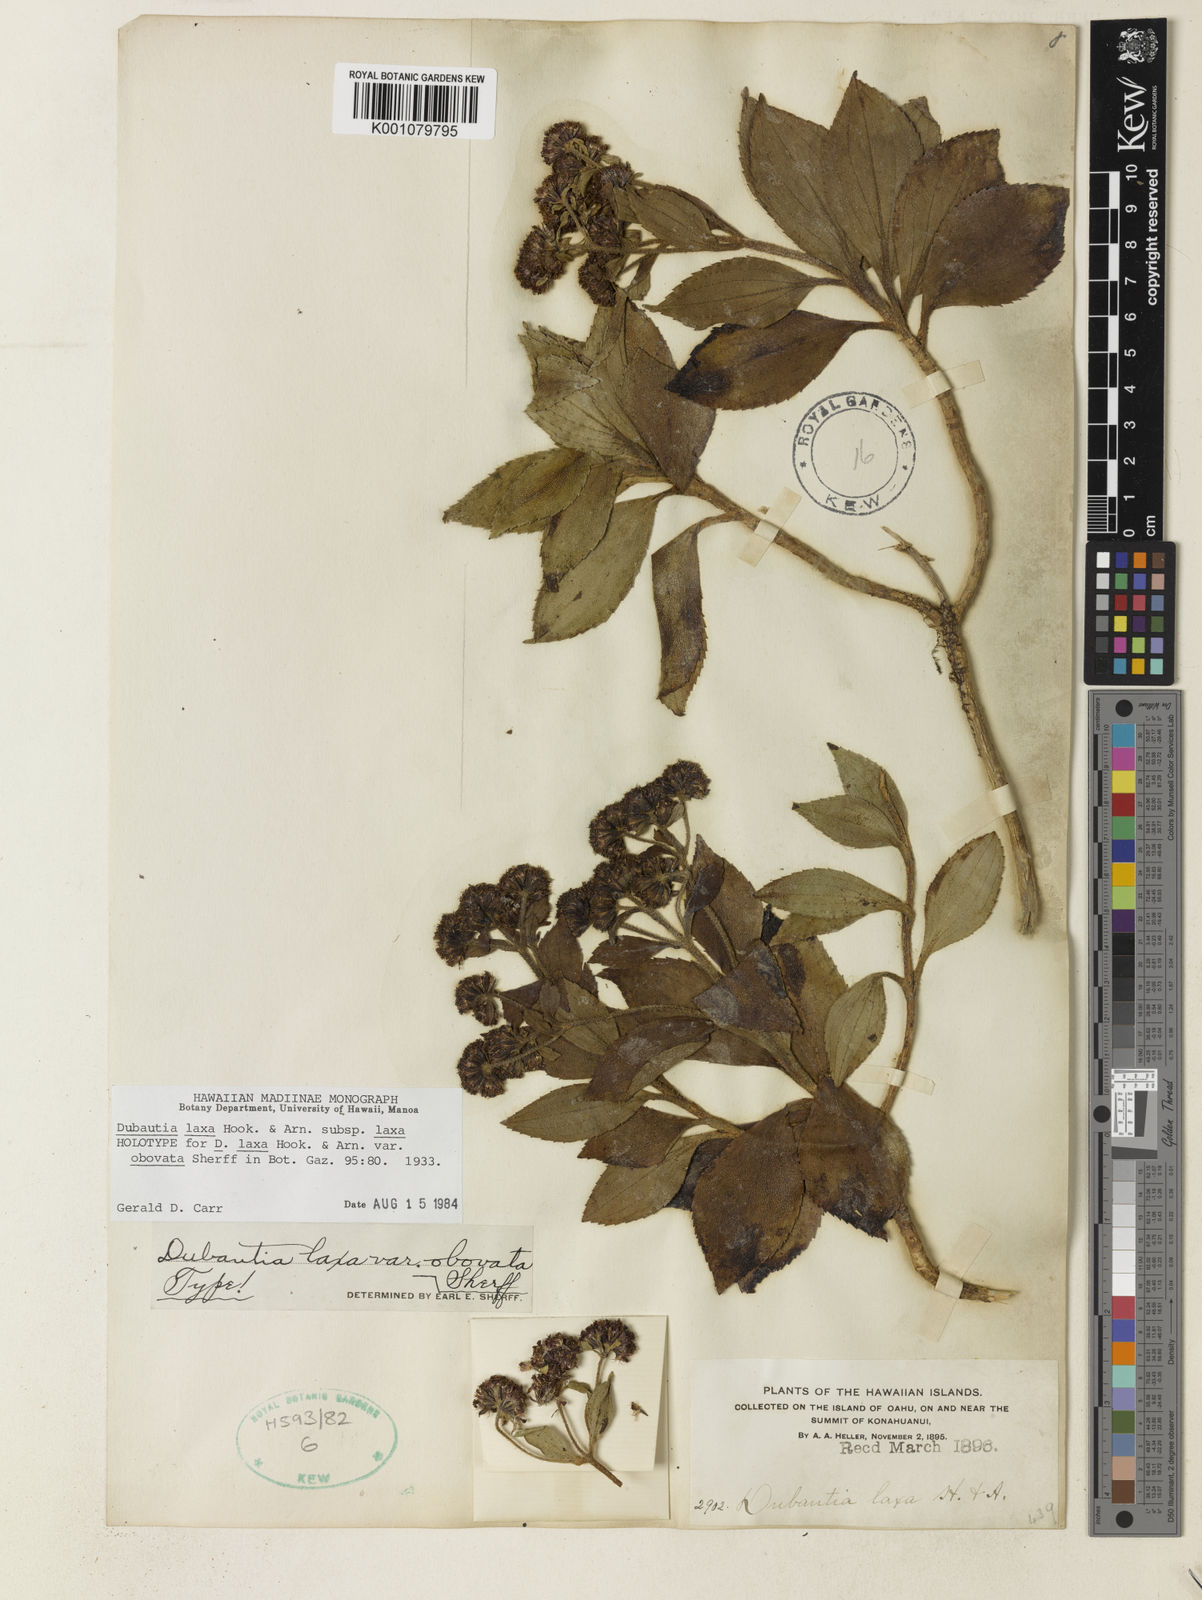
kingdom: Plantae
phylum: Tracheophyta
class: Magnoliopsida
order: Asterales
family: Asteraceae
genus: Dubautia
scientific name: Dubautia laxa
